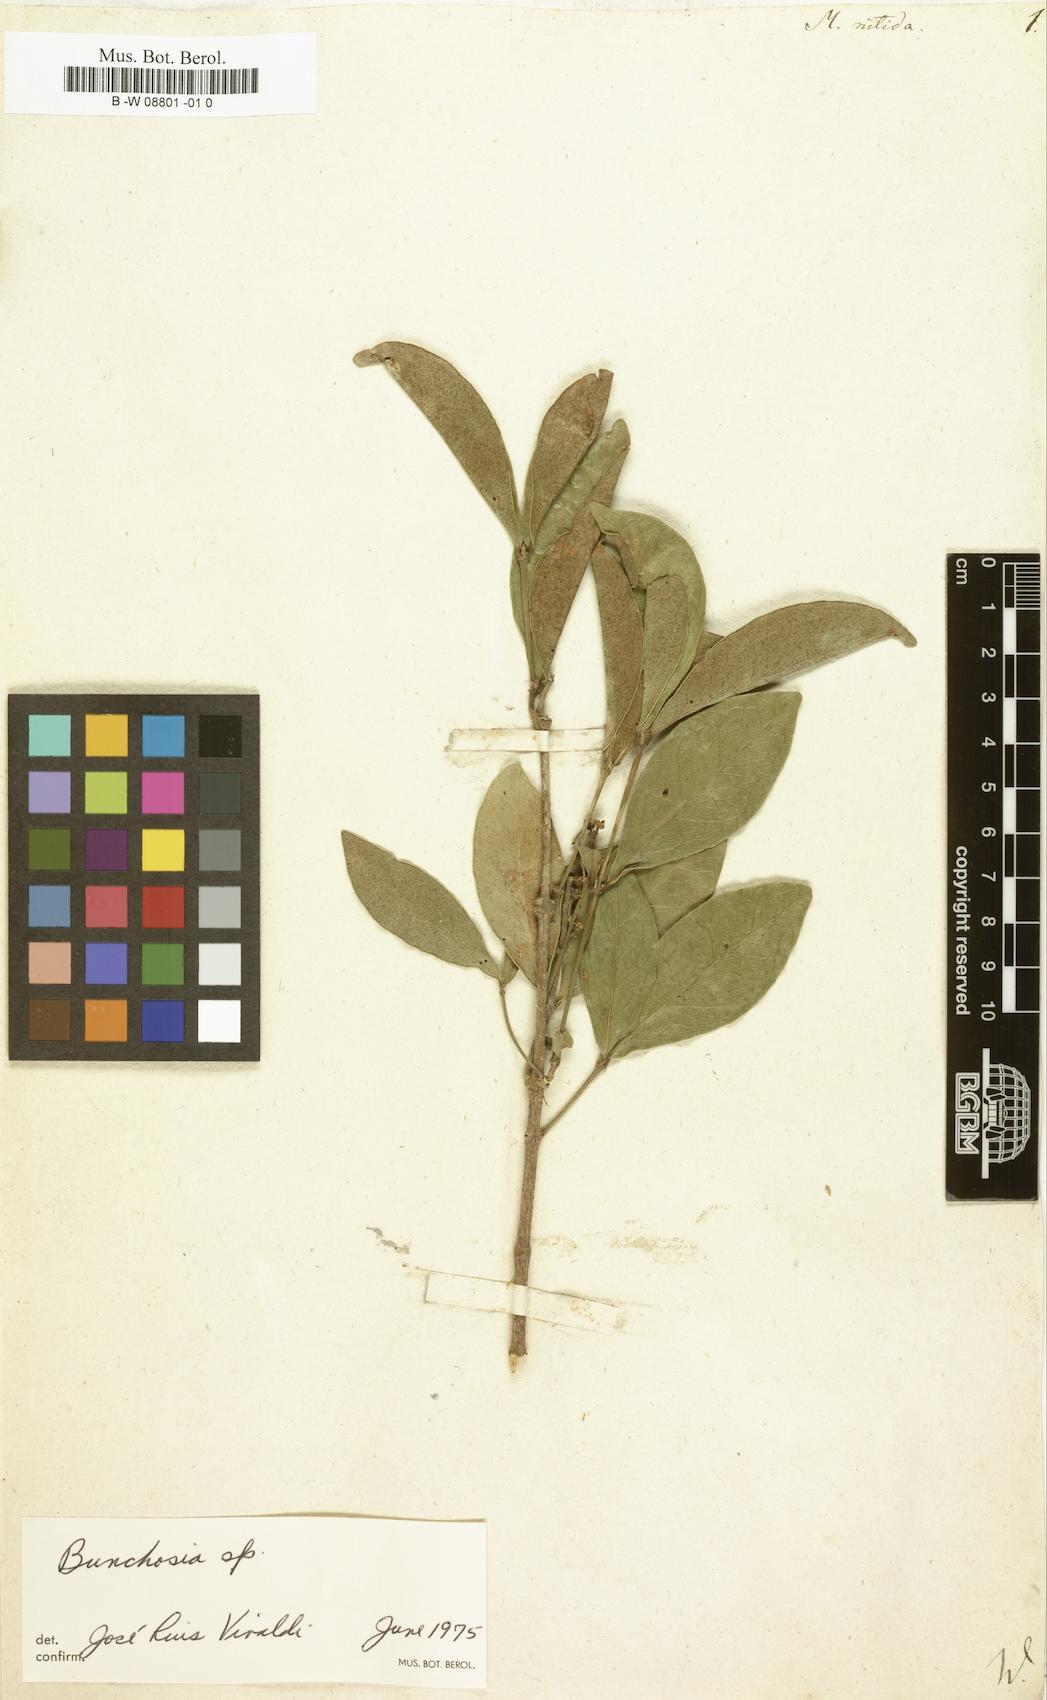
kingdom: Plantae
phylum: Tracheophyta
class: Magnoliopsida
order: Malpighiales
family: Malpighiaceae
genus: Malpighia
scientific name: Malpighia nitida
